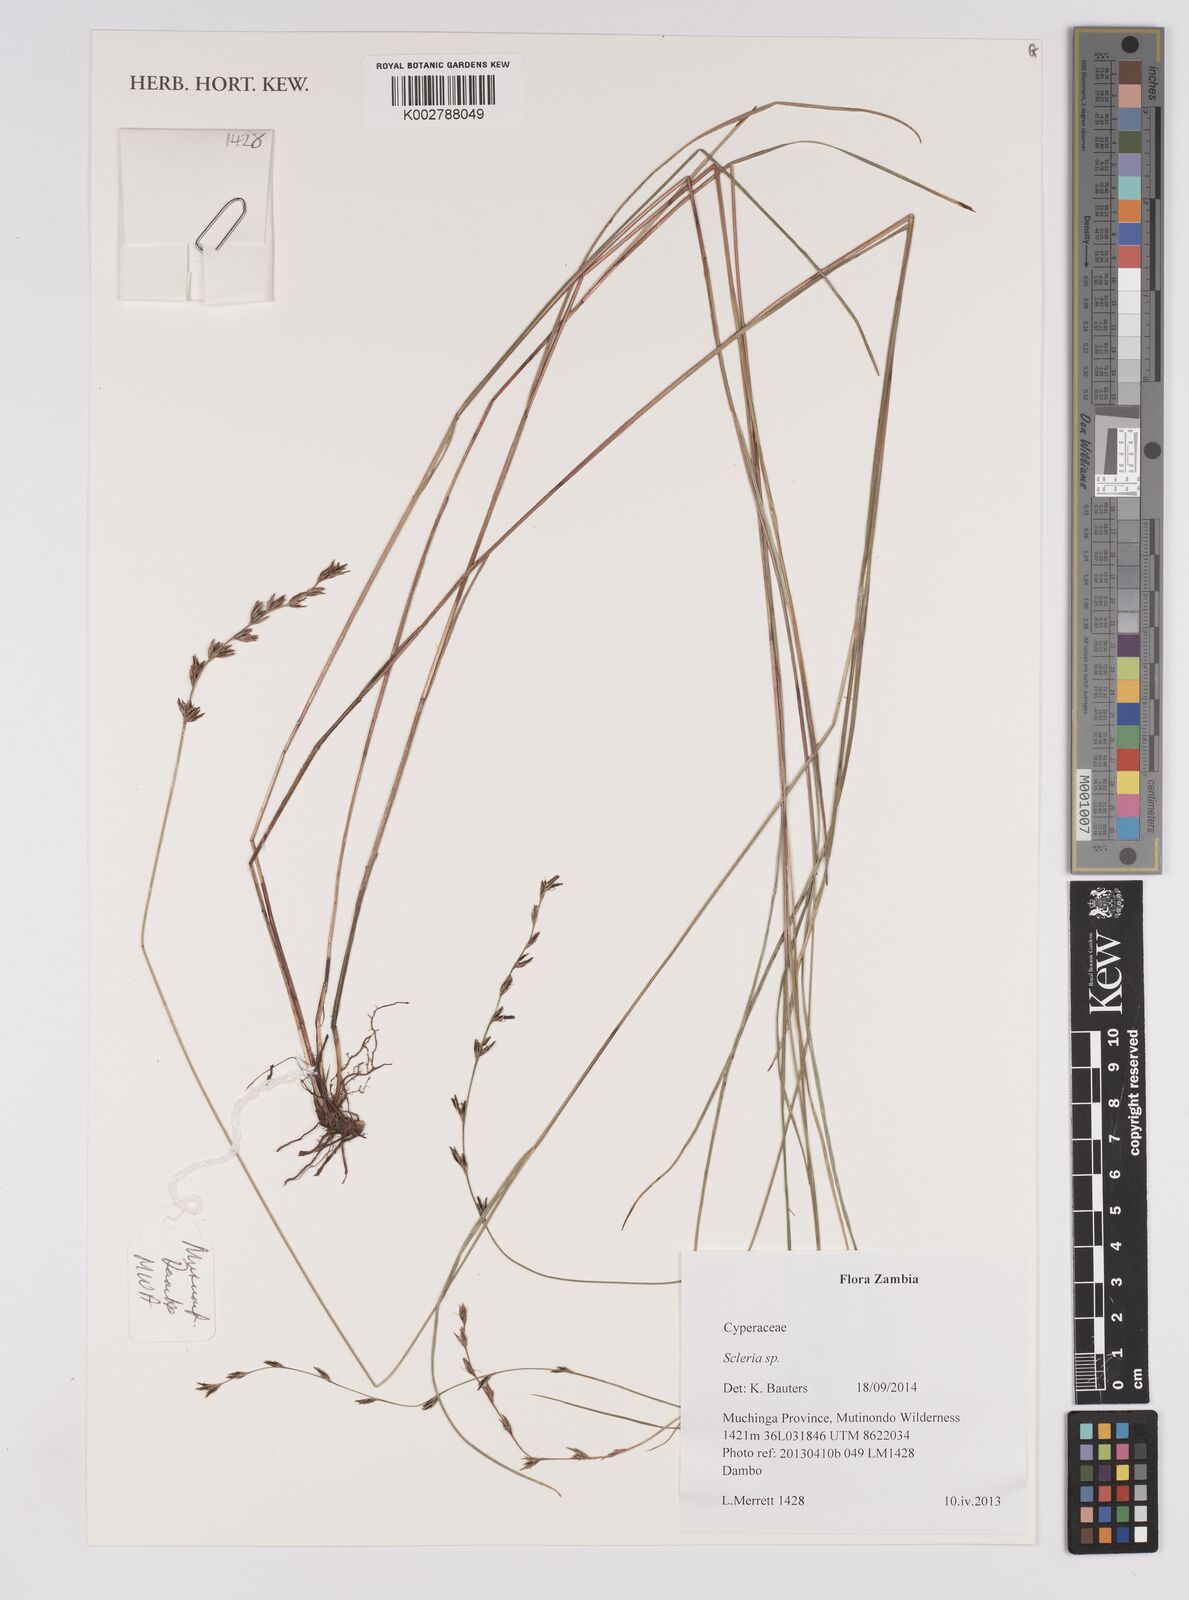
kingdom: Plantae
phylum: Tracheophyta
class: Liliopsida
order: Poales
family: Cyperaceae
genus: Scleria
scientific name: Scleria dregeana
